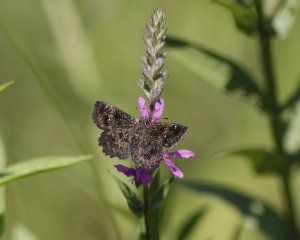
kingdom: Animalia
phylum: Arthropoda
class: Insecta
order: Lepidoptera
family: Hesperiidae
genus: Staphylus
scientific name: Staphylus mazans
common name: Hayhurst's Scallopwing
